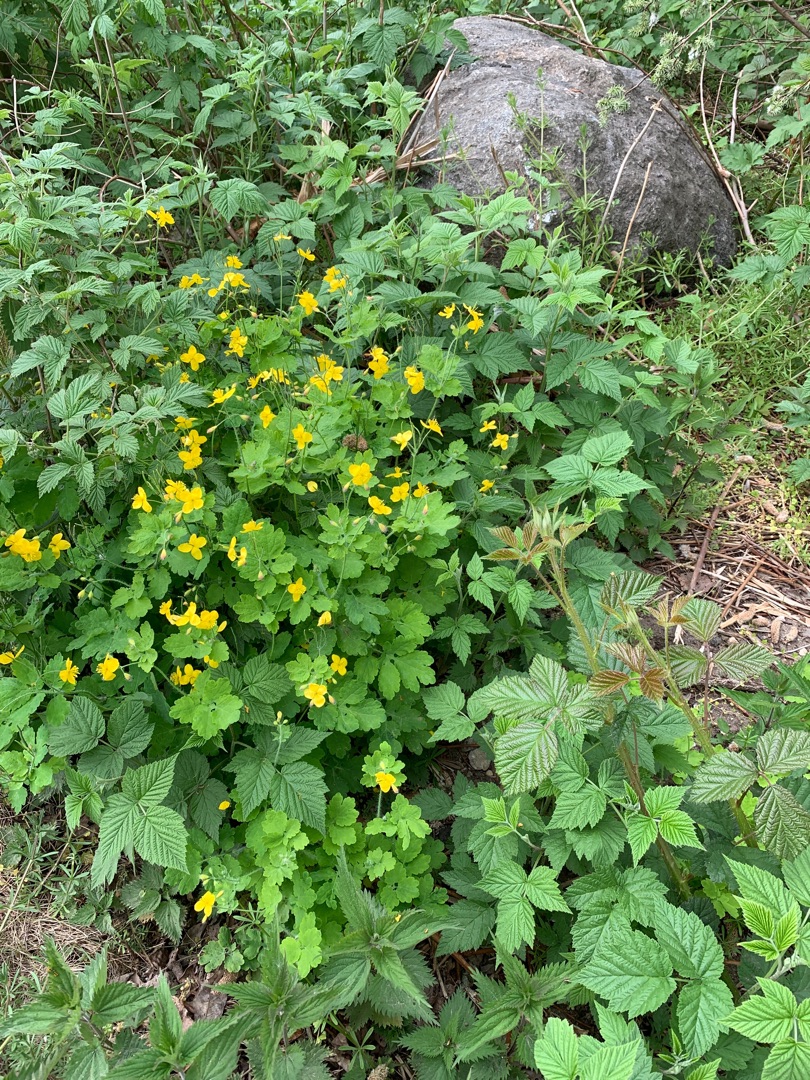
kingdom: Plantae
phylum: Tracheophyta
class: Magnoliopsida
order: Ranunculales
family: Papaveraceae
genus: Chelidonium
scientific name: Chelidonium majus
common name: Svaleurt
